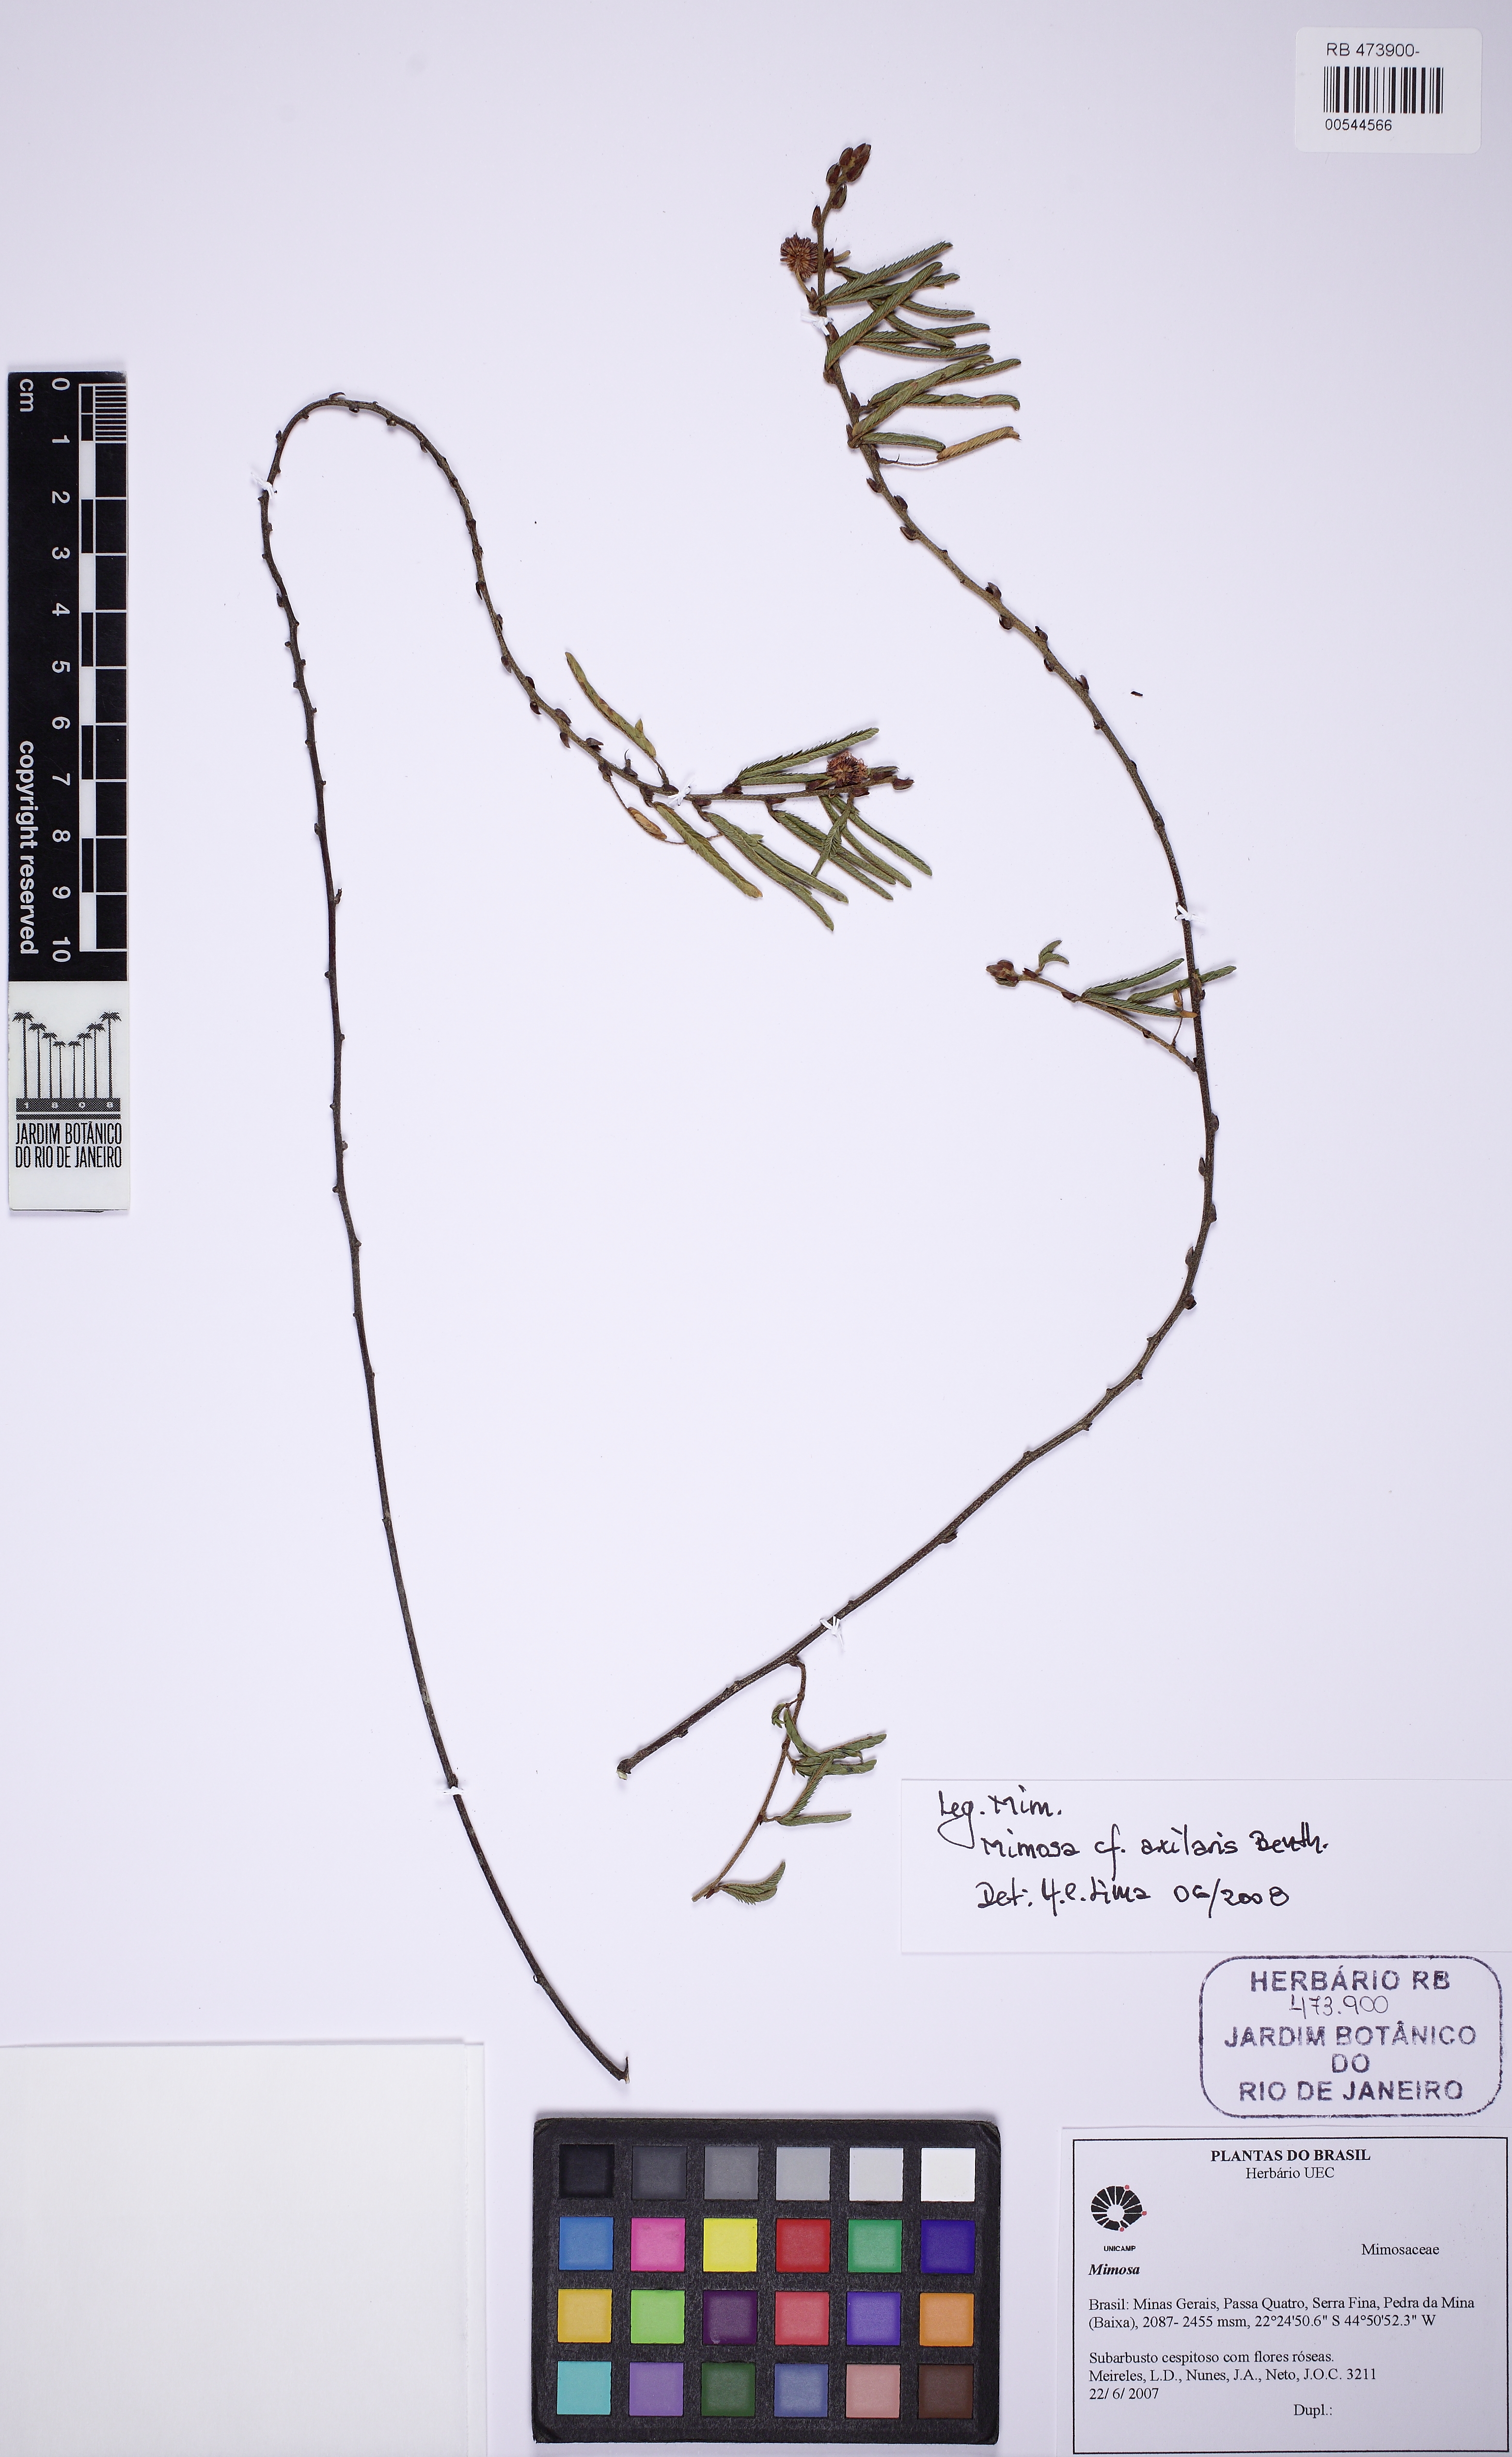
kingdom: Plantae
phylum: Tracheophyta
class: Magnoliopsida
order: Fabales
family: Fabaceae
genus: Mimosa
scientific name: Mimosa ourobrancoensis
